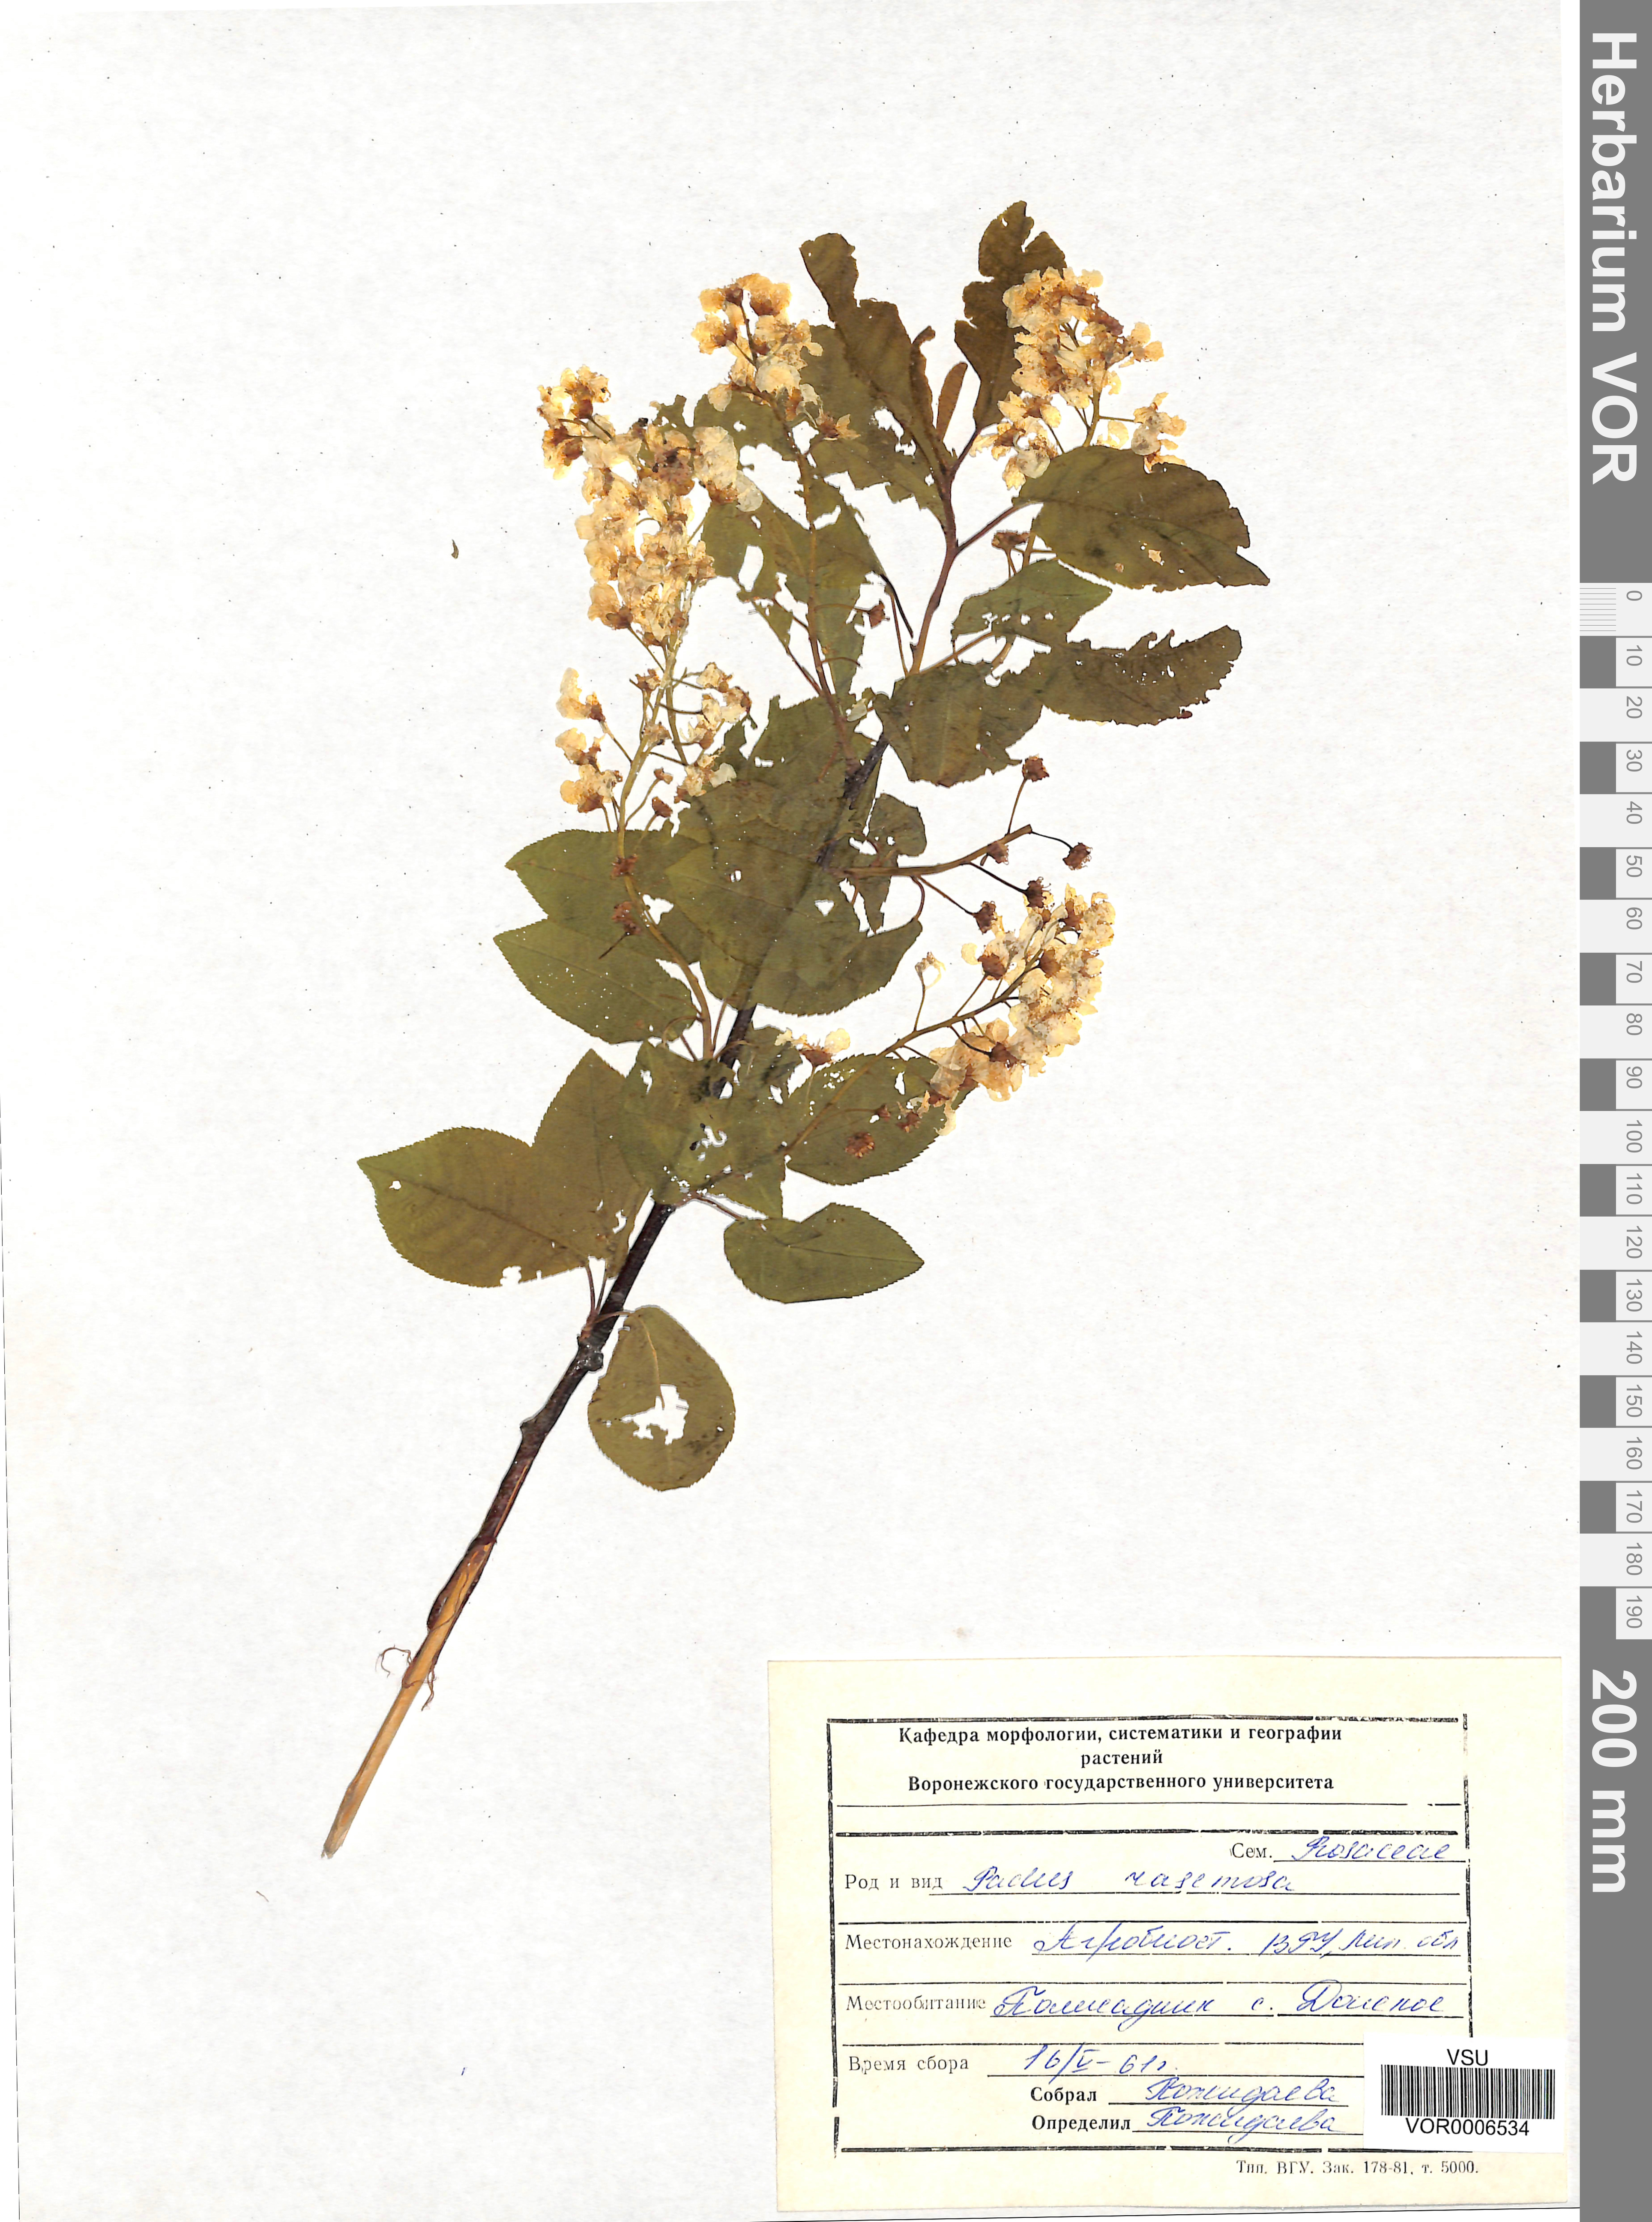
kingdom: Plantae
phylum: Tracheophyta
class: Magnoliopsida
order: Rosales
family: Rosaceae
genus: Prunus
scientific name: Prunus padus
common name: Bird cherry
